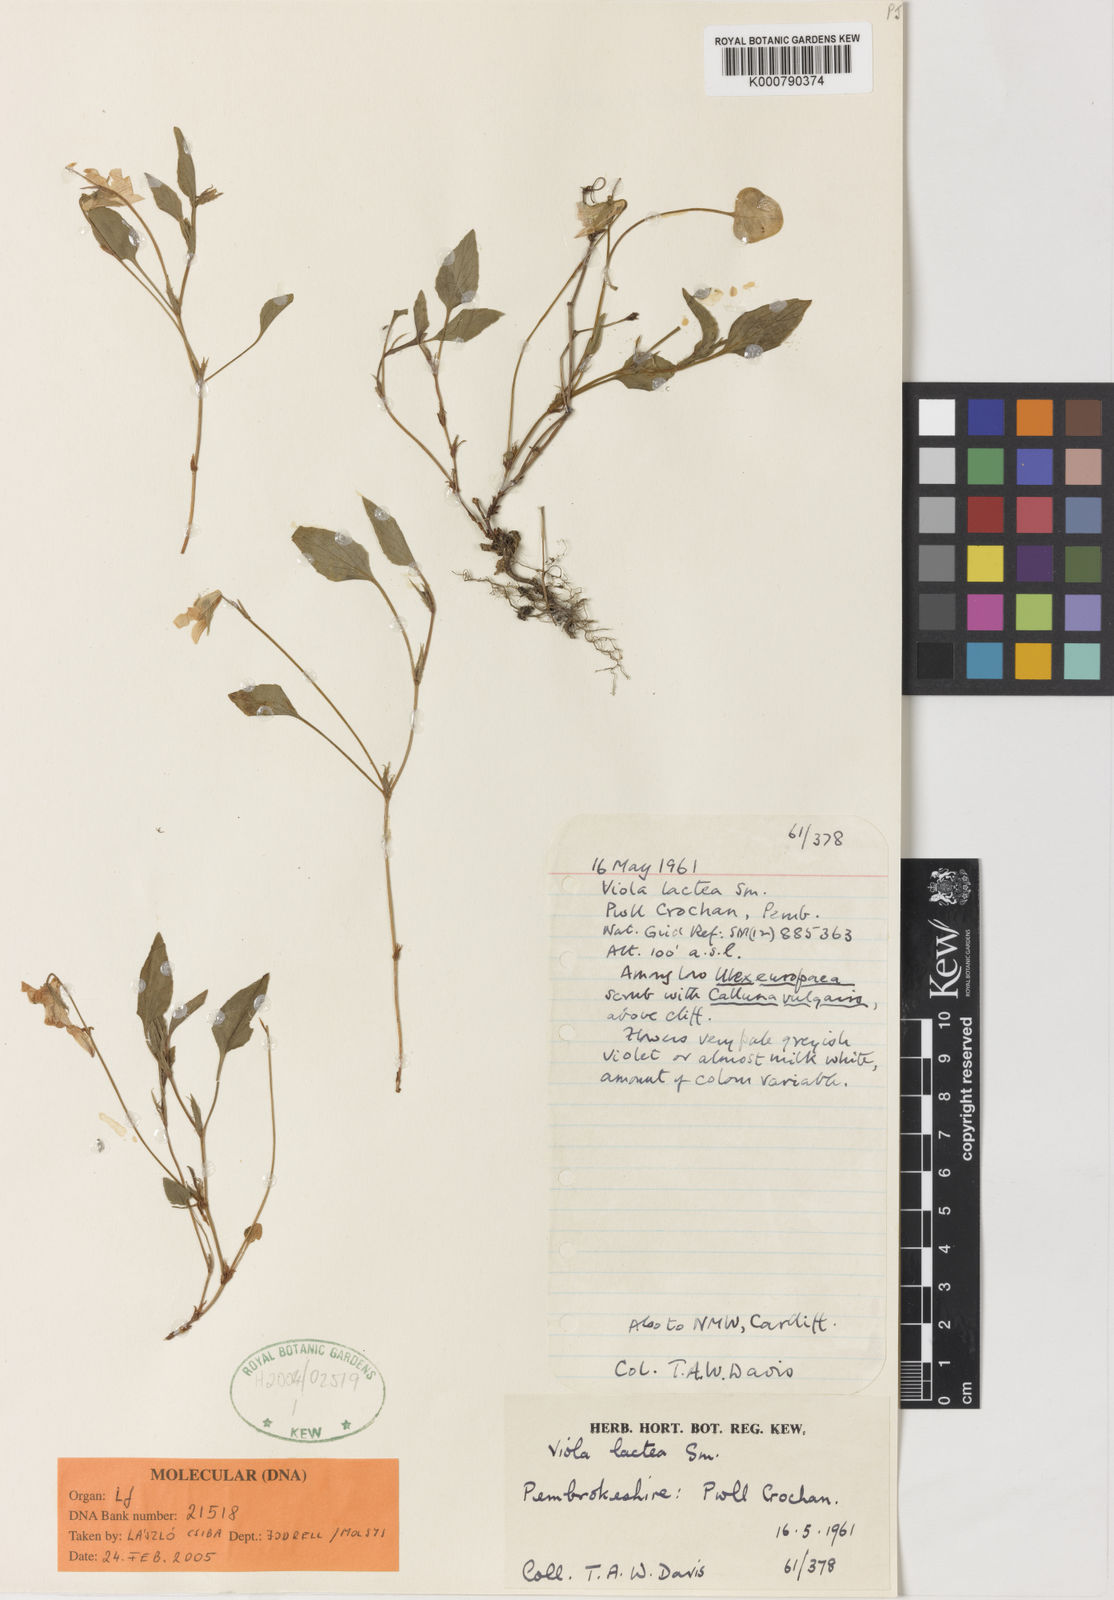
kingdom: Plantae
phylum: Tracheophyta
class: Magnoliopsida
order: Malpighiales
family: Violaceae
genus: Viola
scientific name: Viola lactea
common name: Pale dog-violet
